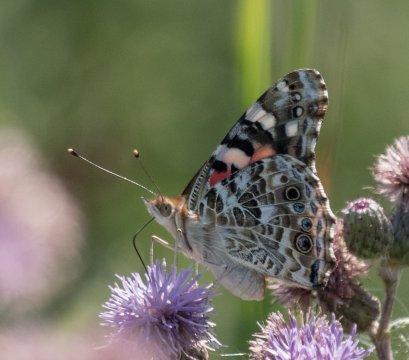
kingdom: Animalia
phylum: Arthropoda
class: Insecta
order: Lepidoptera
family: Nymphalidae
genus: Vanessa
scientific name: Vanessa cardui
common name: Painted Lady
